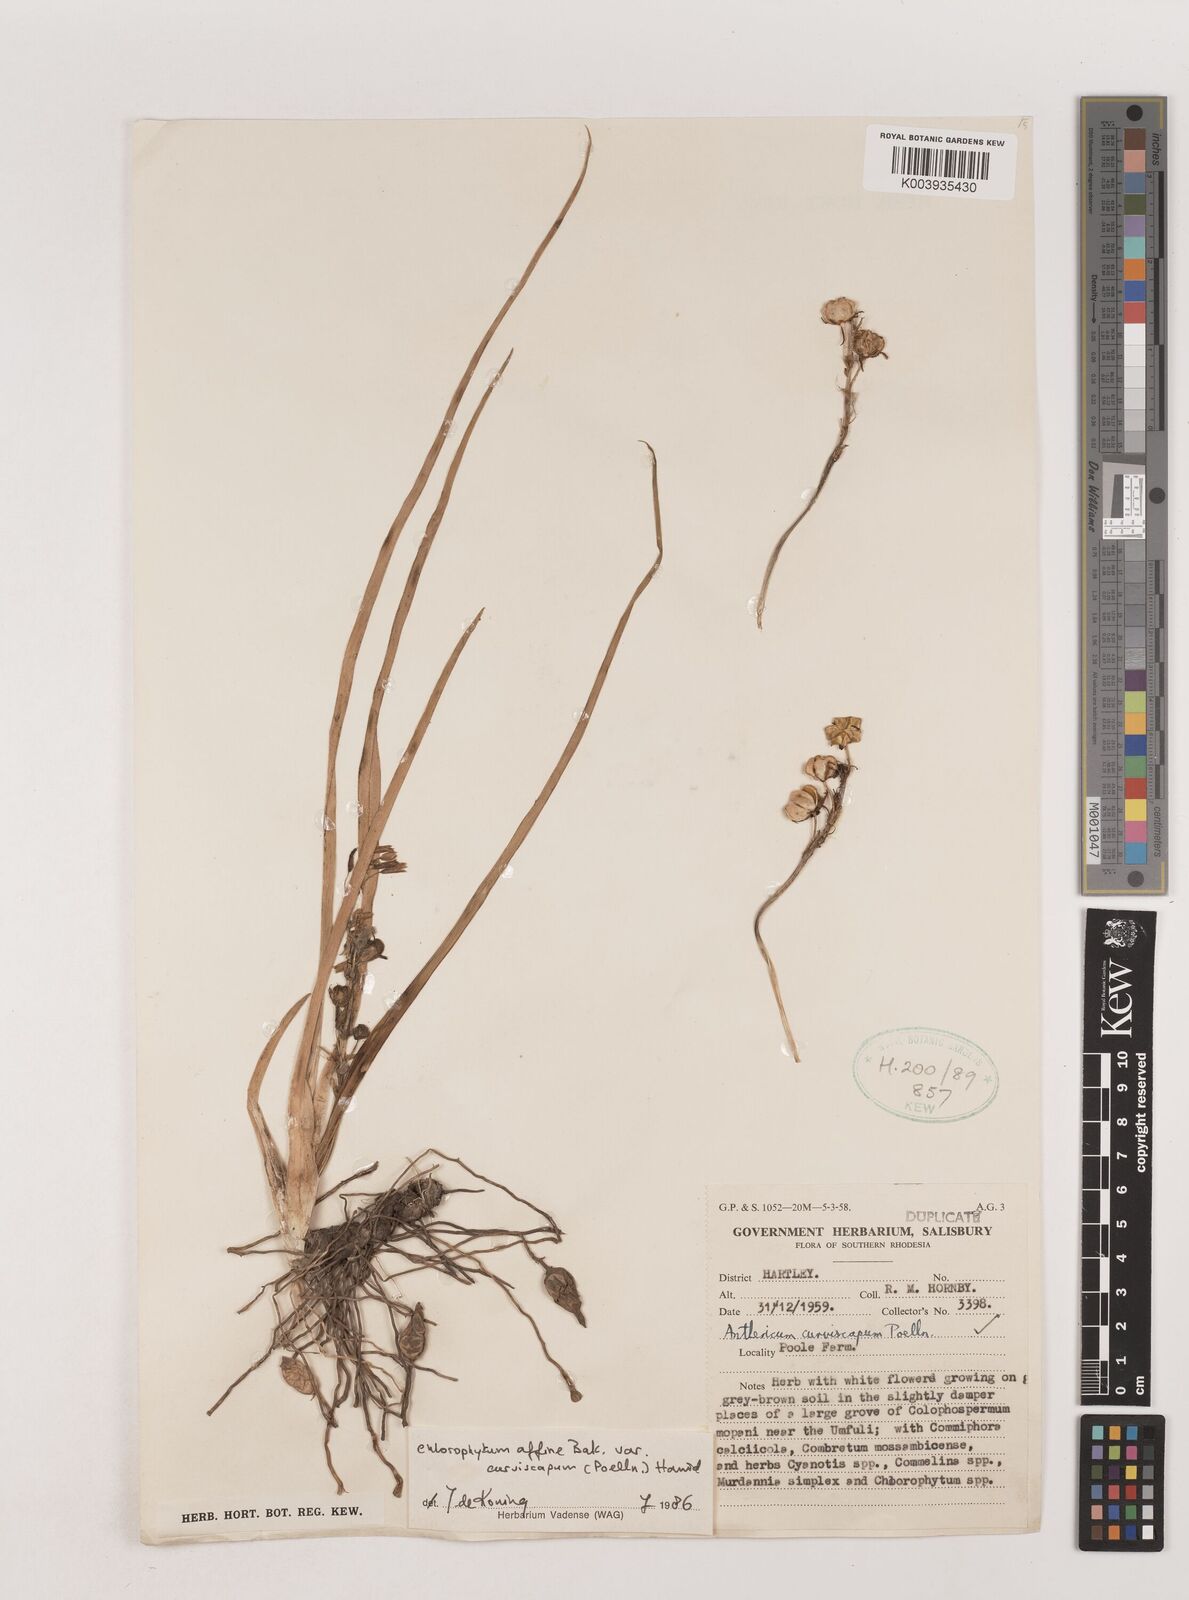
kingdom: Plantae
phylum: Tracheophyta
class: Liliopsida
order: Asparagales
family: Asparagaceae
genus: Chlorophytum
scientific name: Chlorophytum tordense
